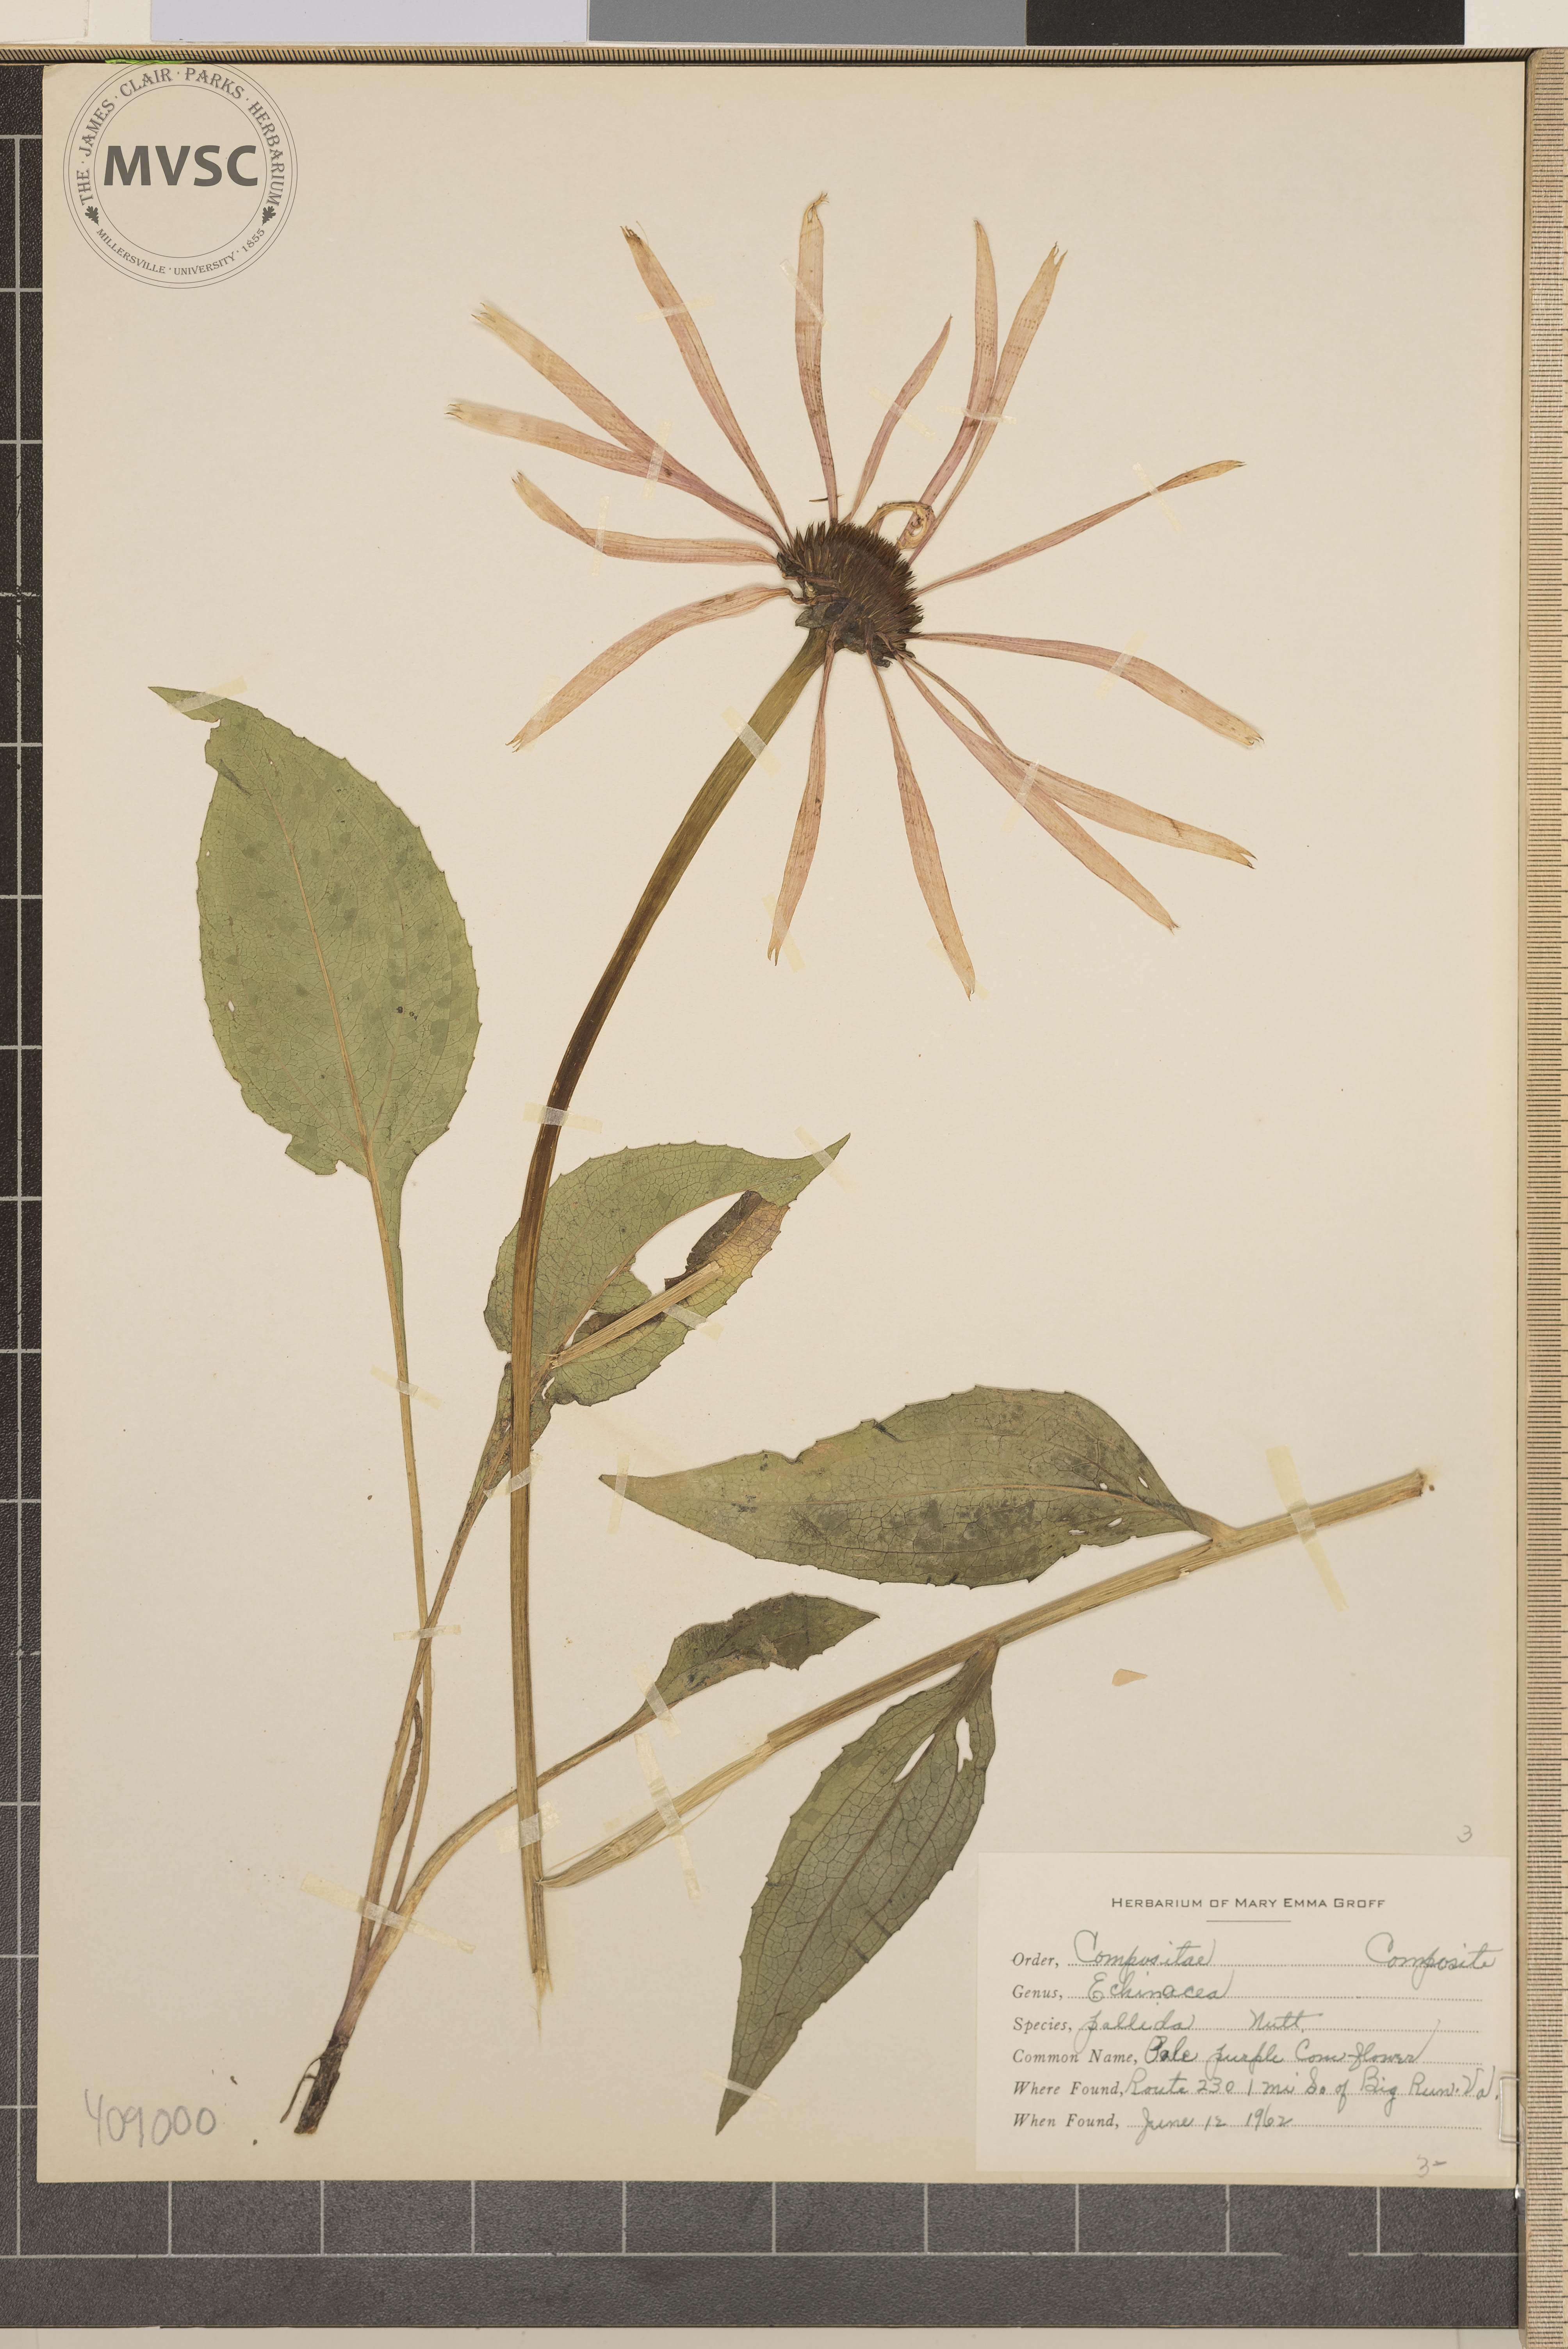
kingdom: Plantae
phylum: Tracheophyta
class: Magnoliopsida
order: Asterales
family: Asteraceae
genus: Echinacea
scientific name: Echinacea pallida
